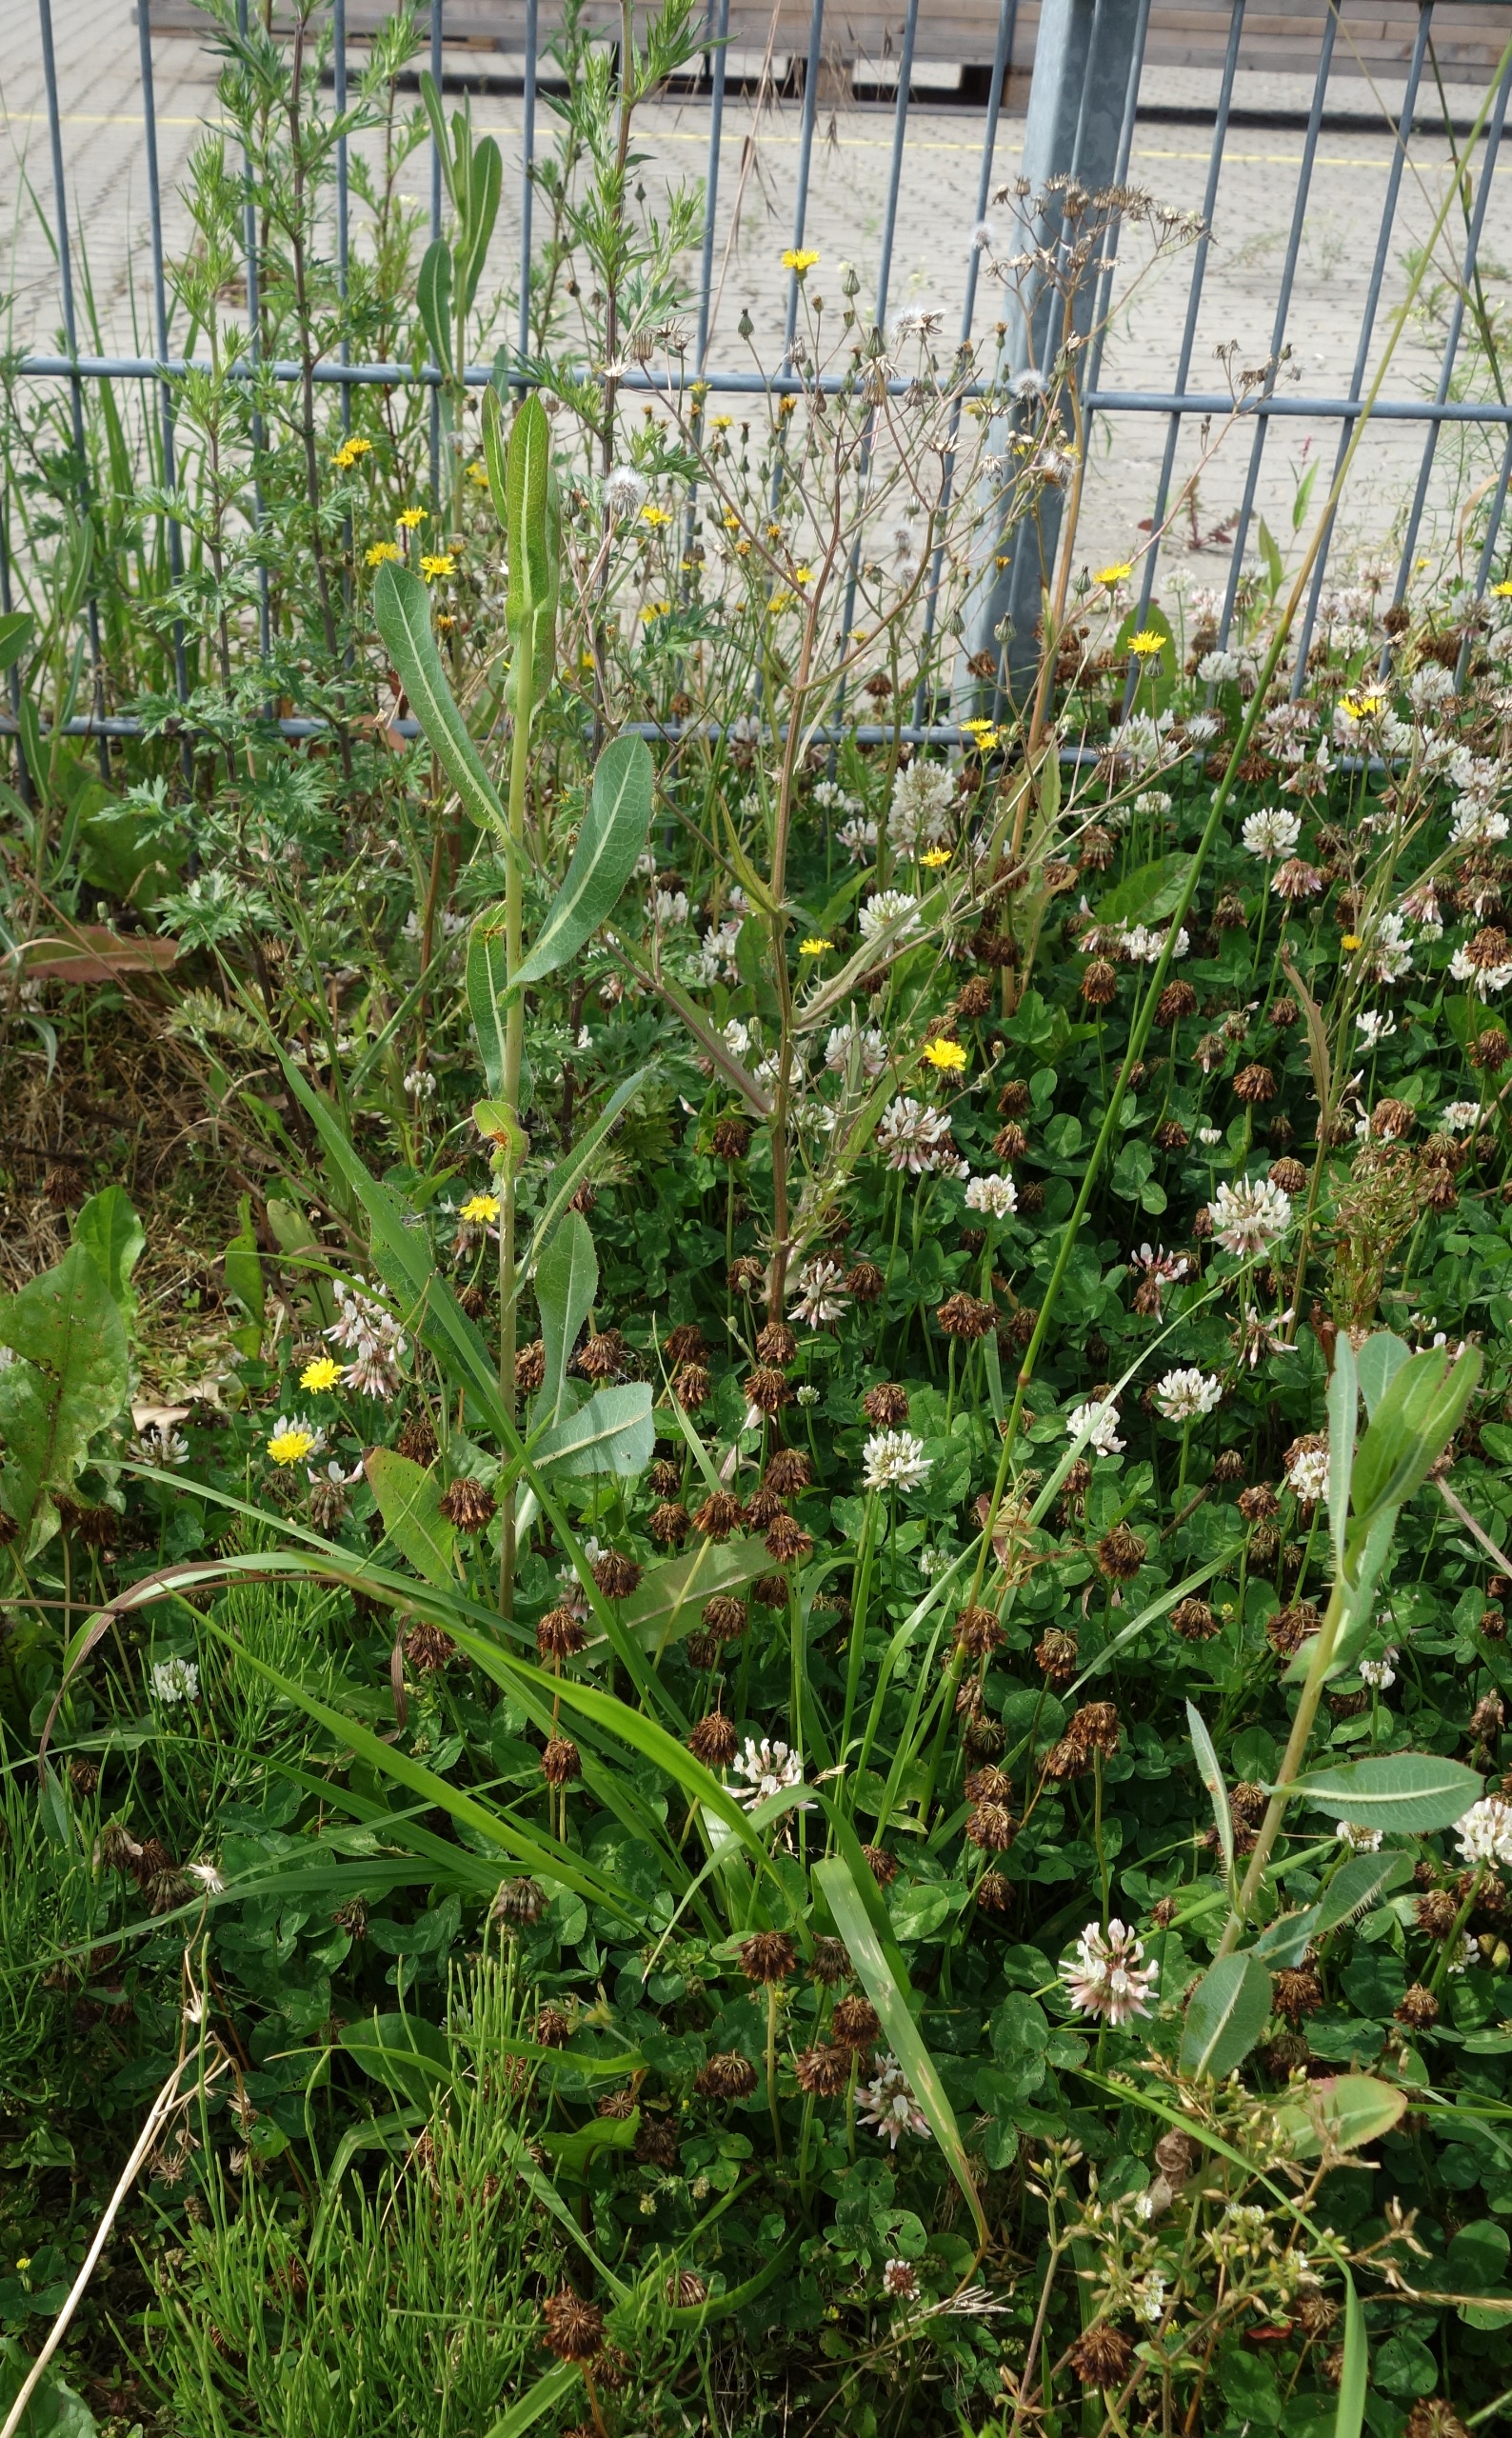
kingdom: Plantae
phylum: Tracheophyta
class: Magnoliopsida
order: Asterales
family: Asteraceae
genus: Lactuca
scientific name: Lactuca serriola
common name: Tornet salat
